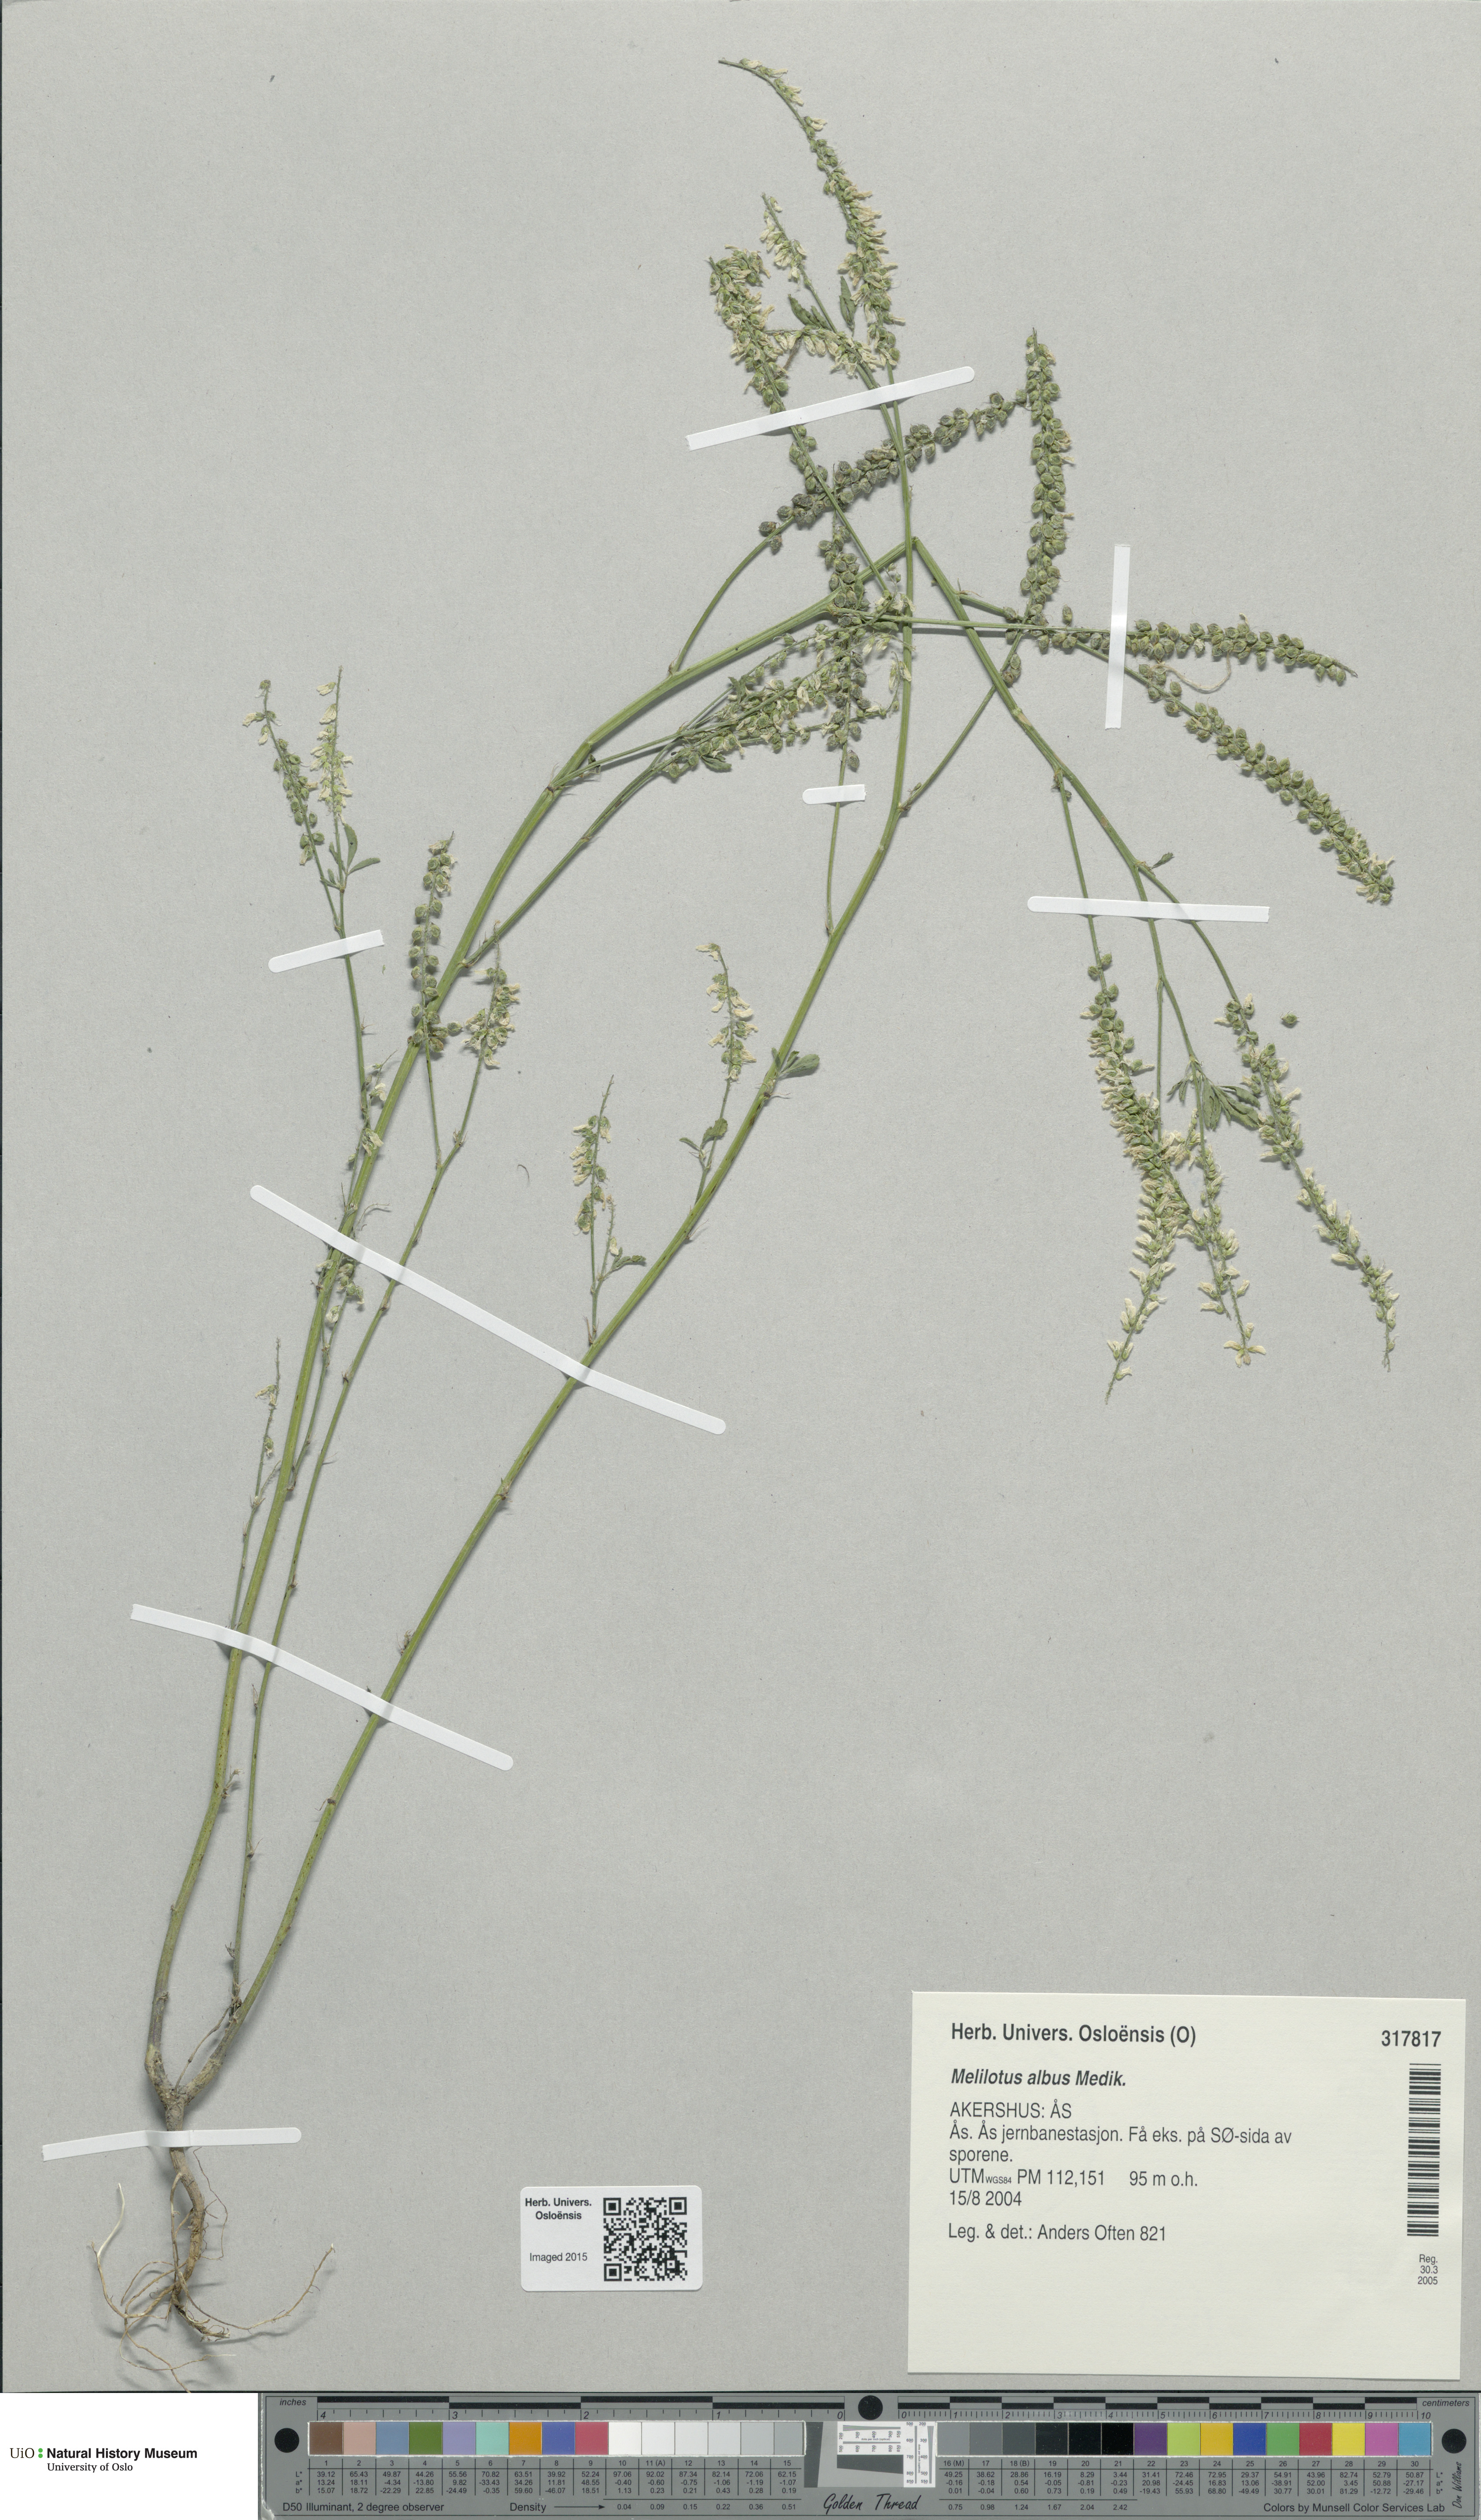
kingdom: Plantae
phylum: Tracheophyta
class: Magnoliopsida
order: Fabales
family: Fabaceae
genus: Melilotus
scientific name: Melilotus albus
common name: White melilot
